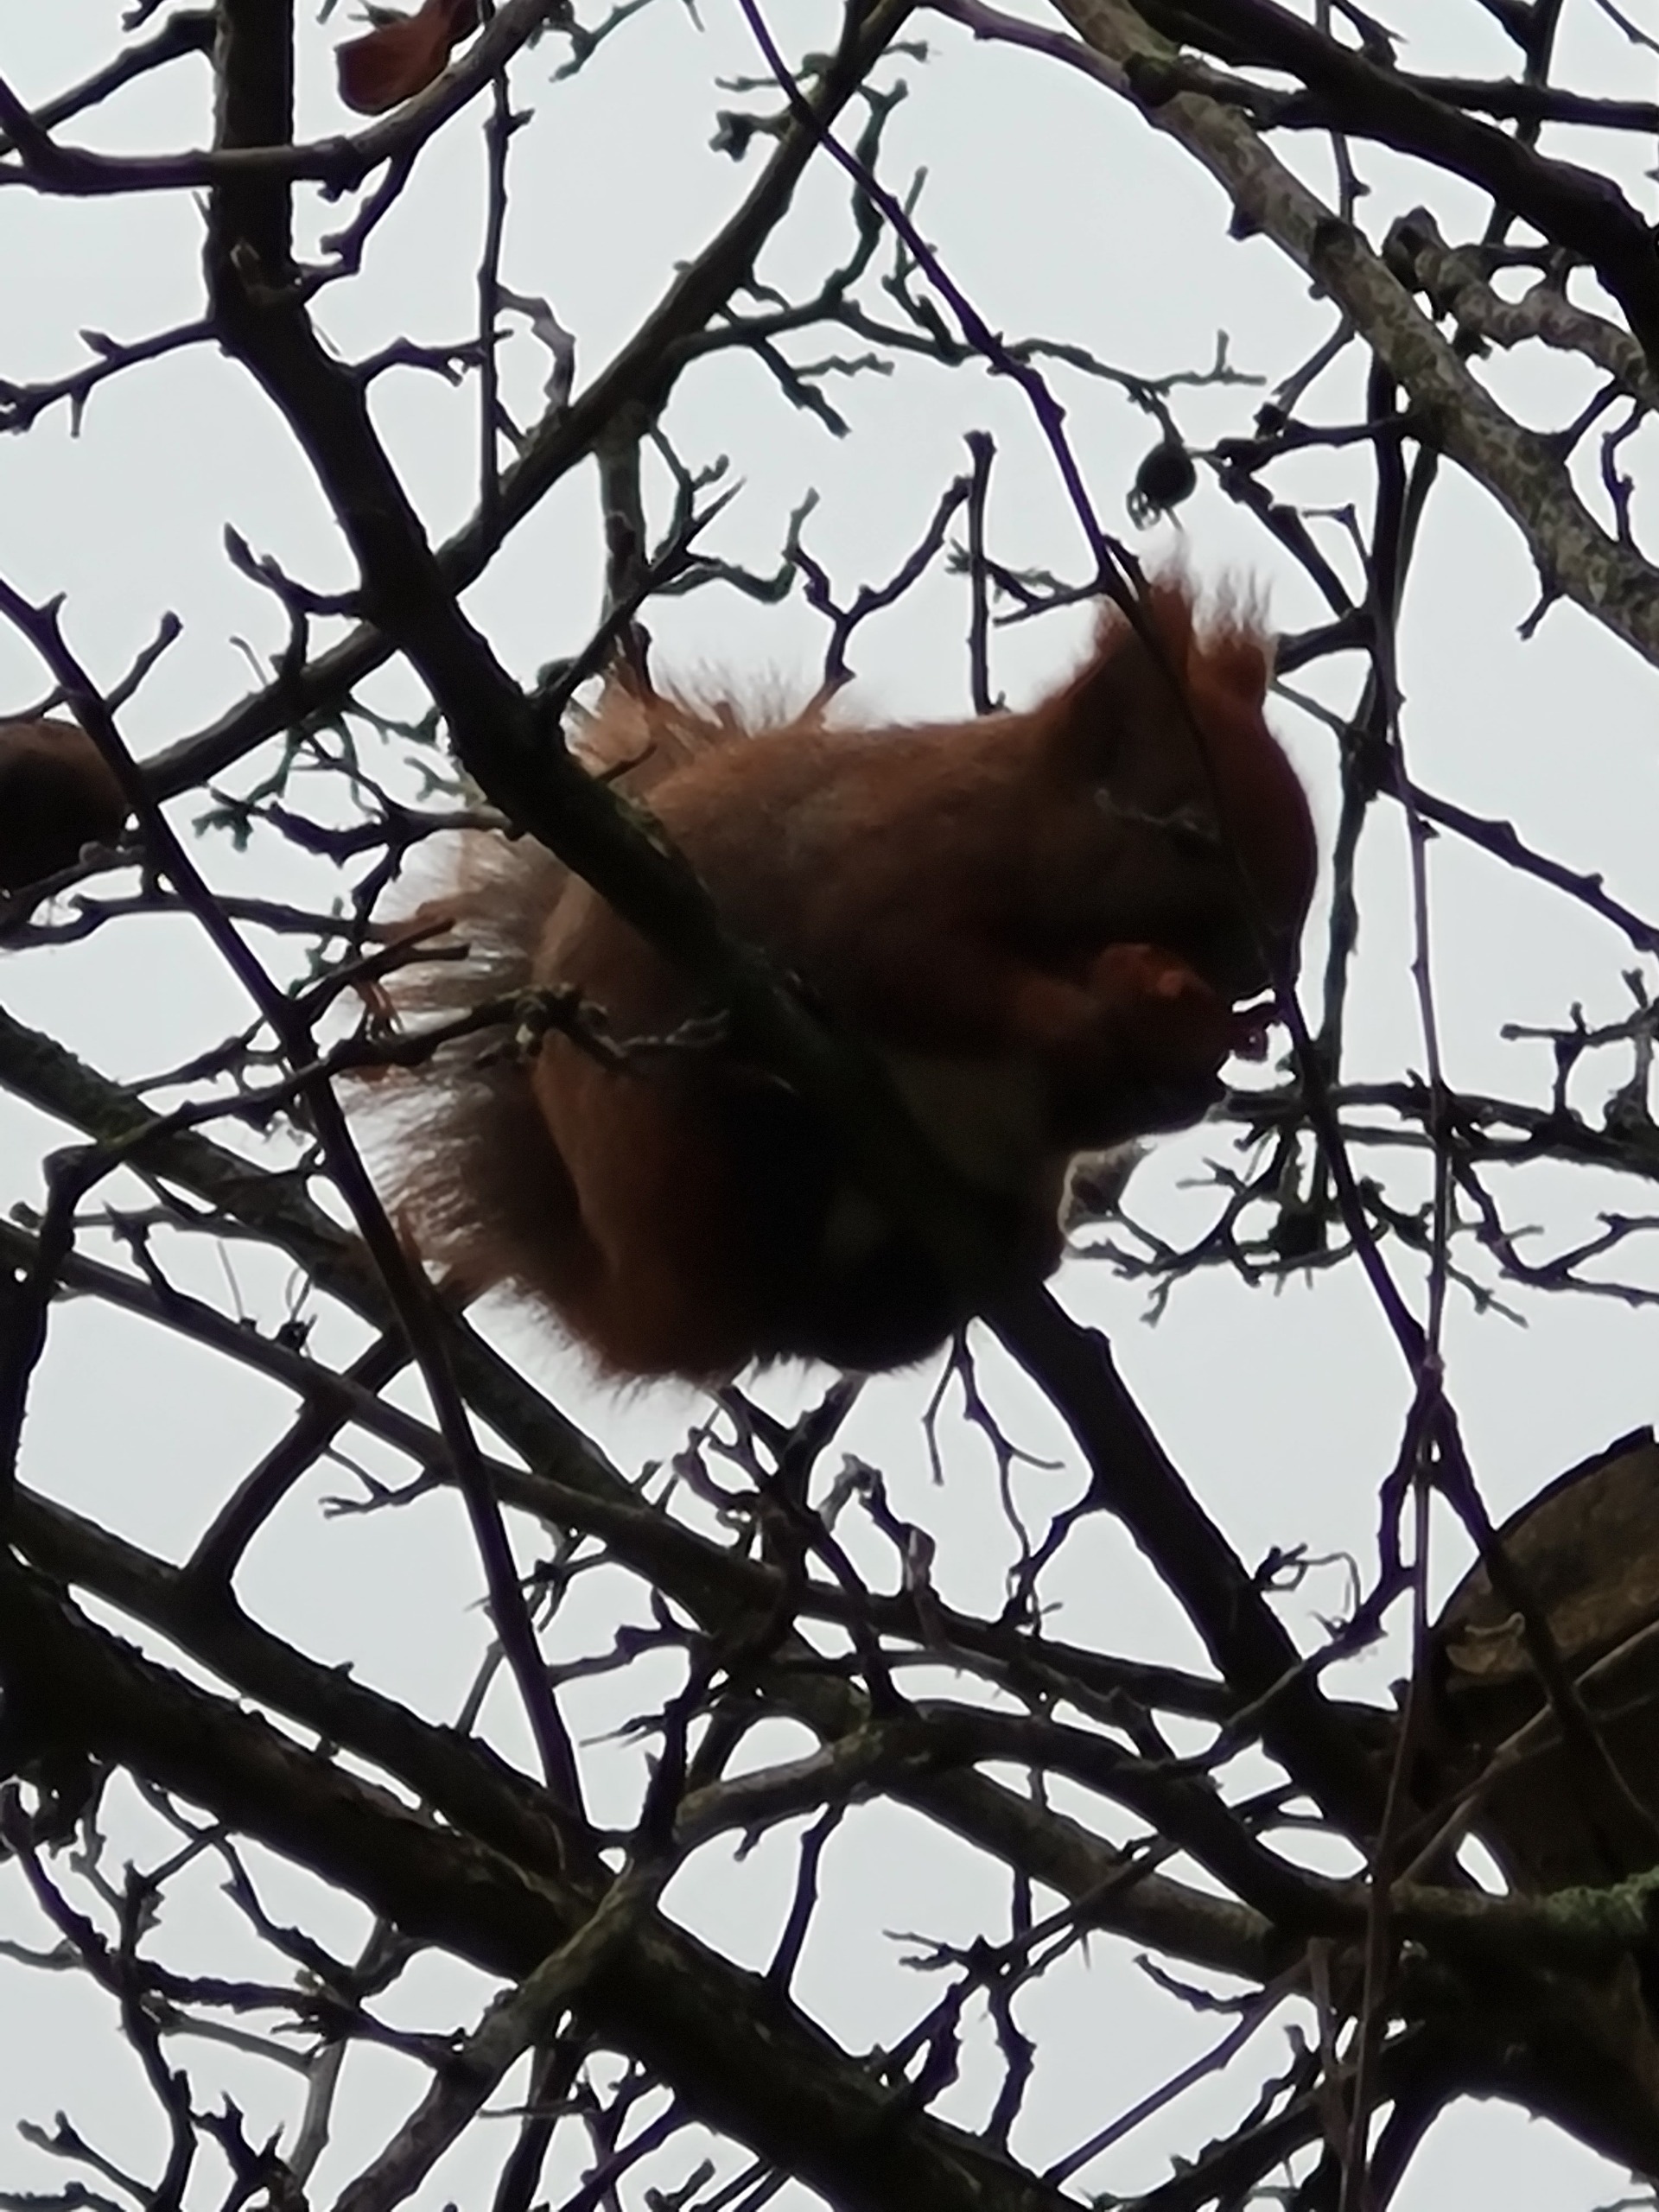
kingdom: Animalia
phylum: Chordata
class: Mammalia
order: Rodentia
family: Sciuridae
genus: Sciurus
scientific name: Sciurus vulgaris
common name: Egern
